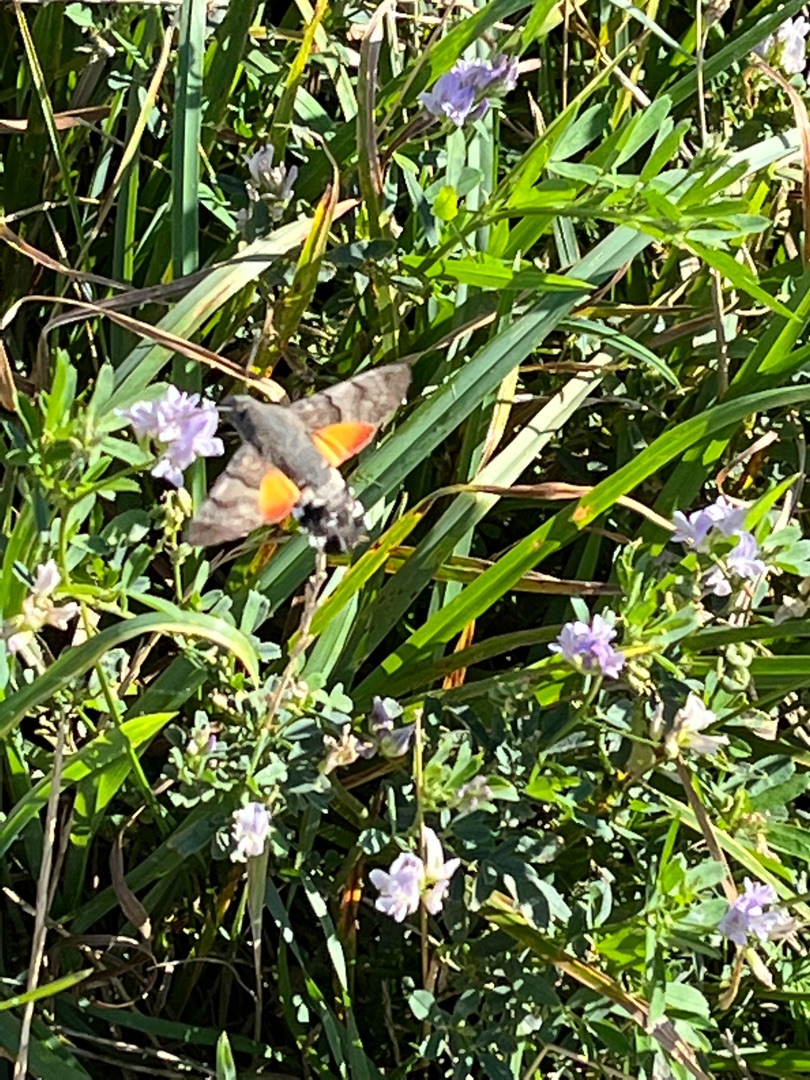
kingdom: Animalia
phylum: Arthropoda
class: Insecta
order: Lepidoptera
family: Sphingidae
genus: Macroglossum
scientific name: Macroglossum stellatarum
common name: Duehale
